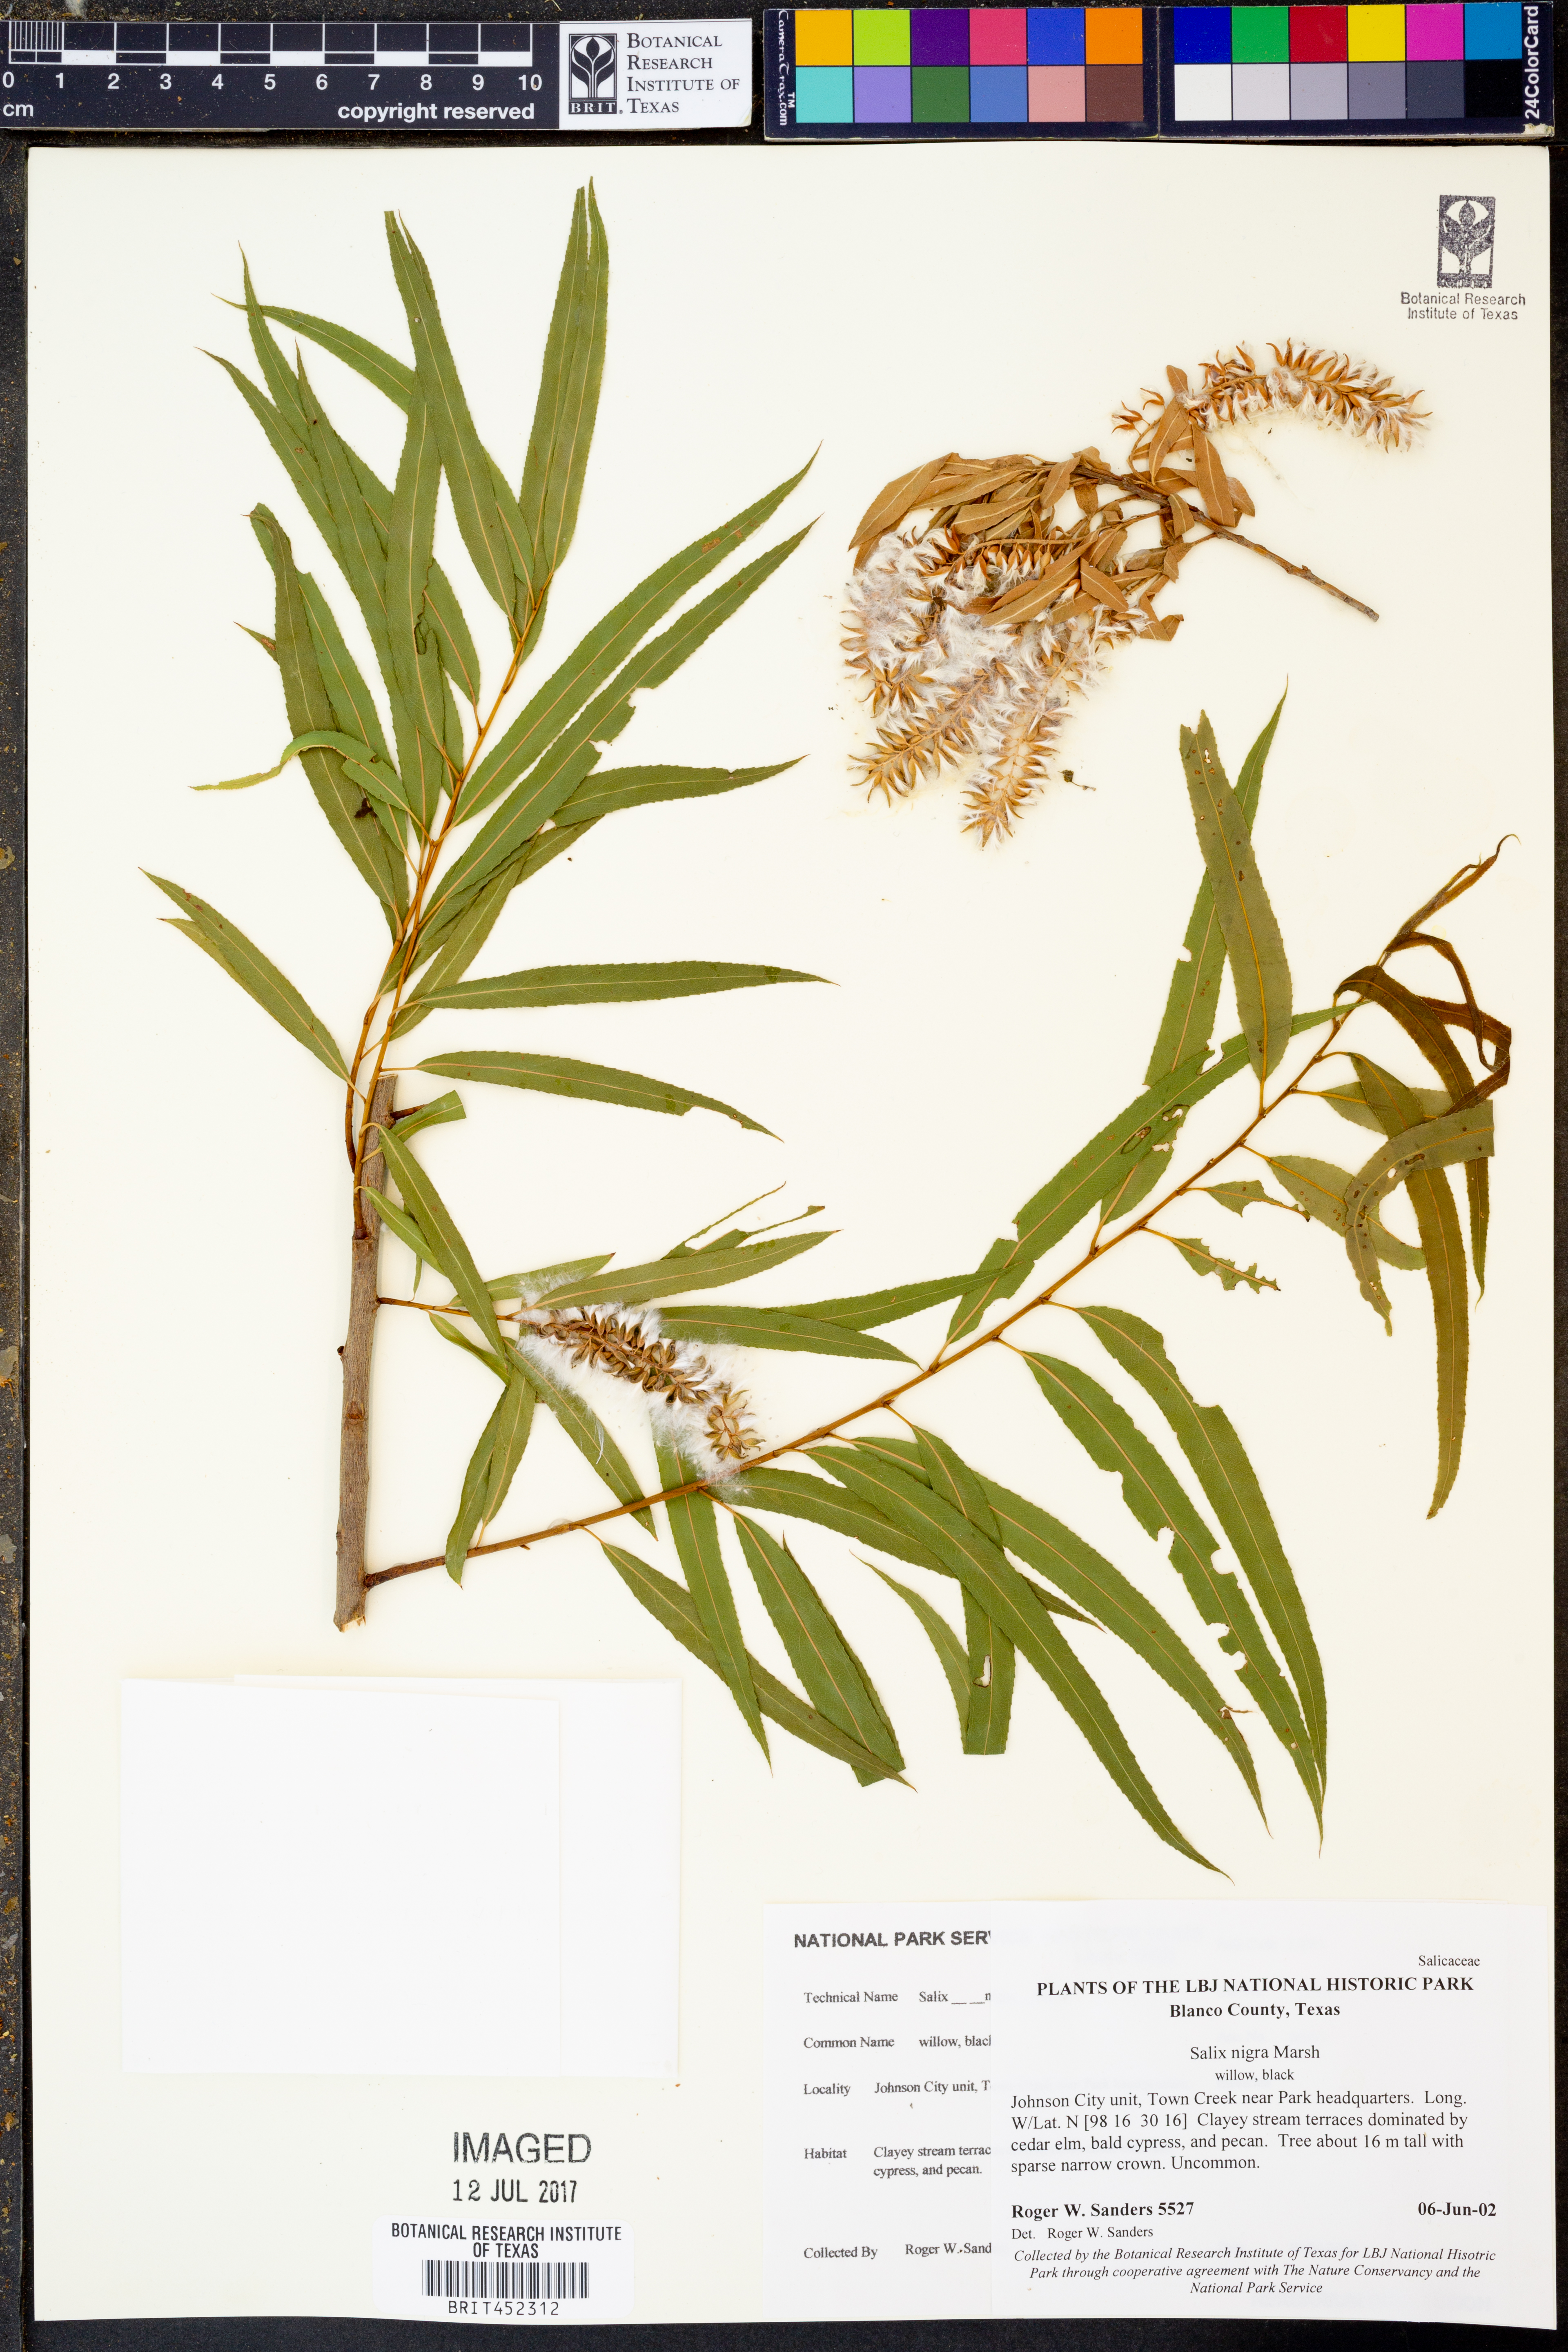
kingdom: Plantae
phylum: Tracheophyta
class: Magnoliopsida
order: Malpighiales
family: Salicaceae
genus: Salix
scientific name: Salix nigra
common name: Black willow
